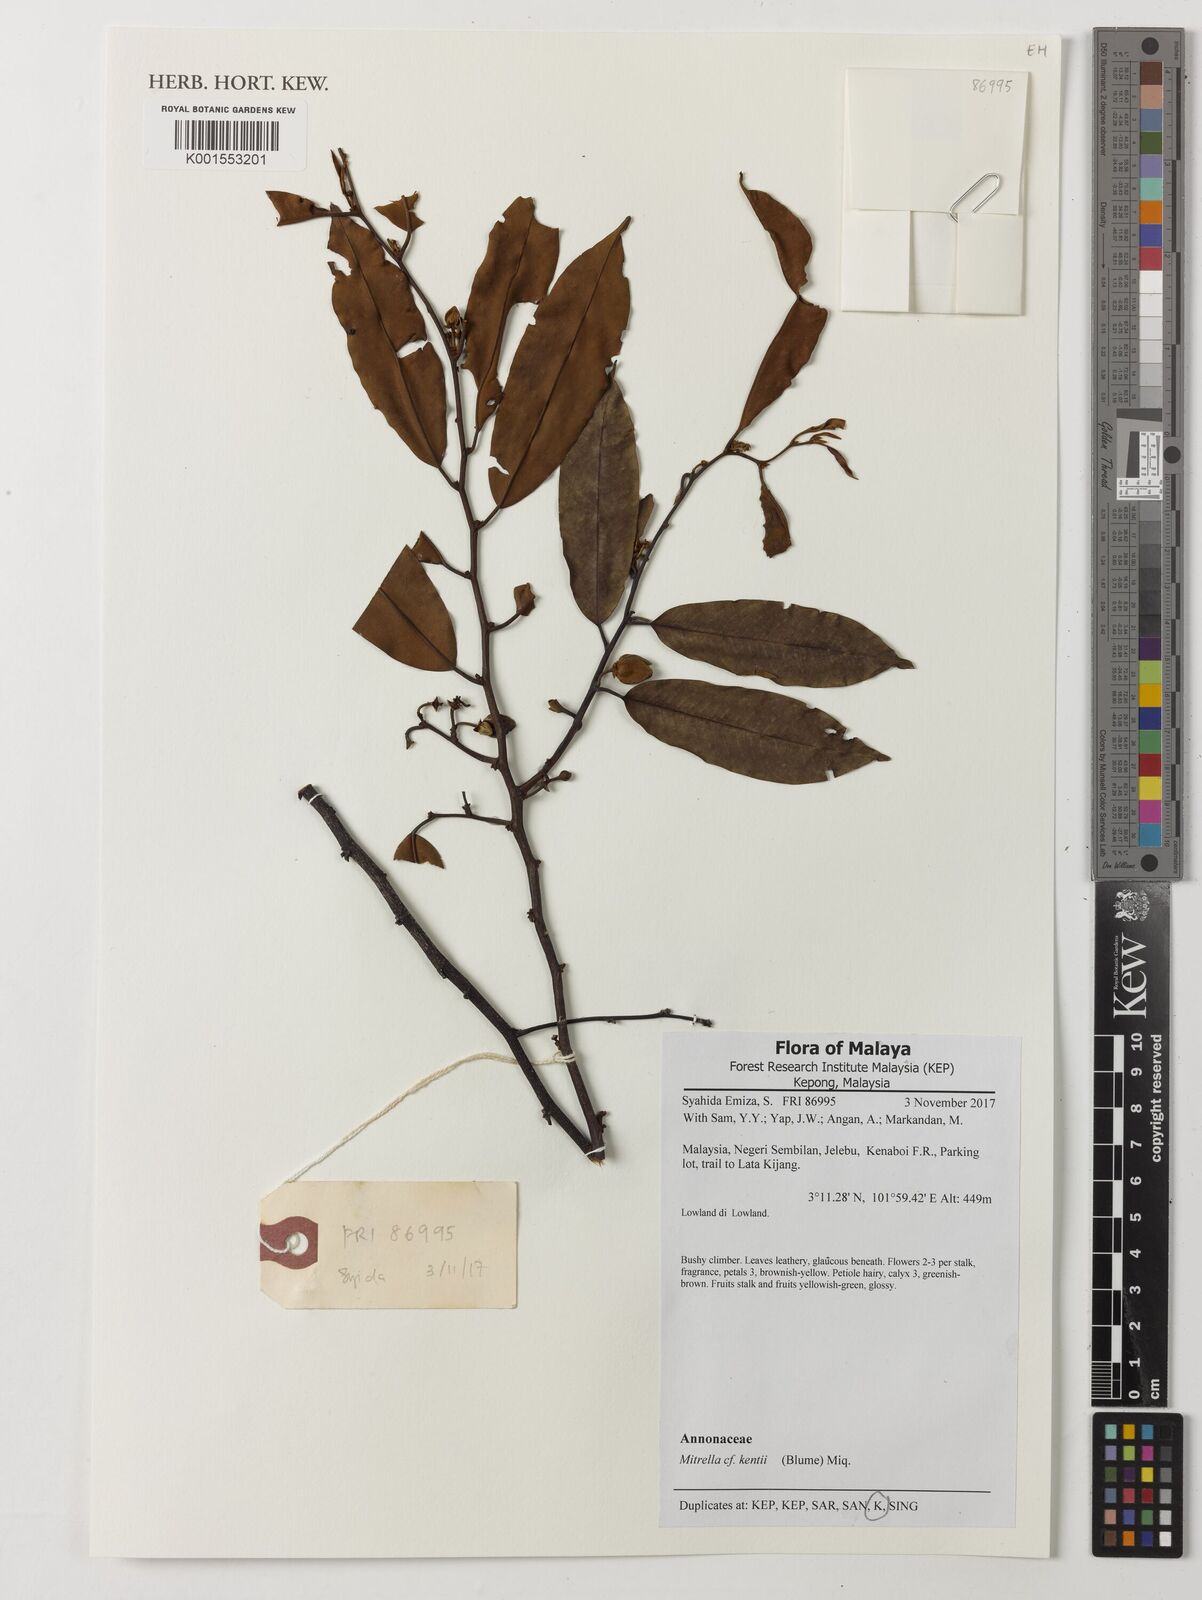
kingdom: Plantae
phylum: Tracheophyta
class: Magnoliopsida
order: Magnoliales
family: Annonaceae
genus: Mitrella
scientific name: Mitrella kentii
